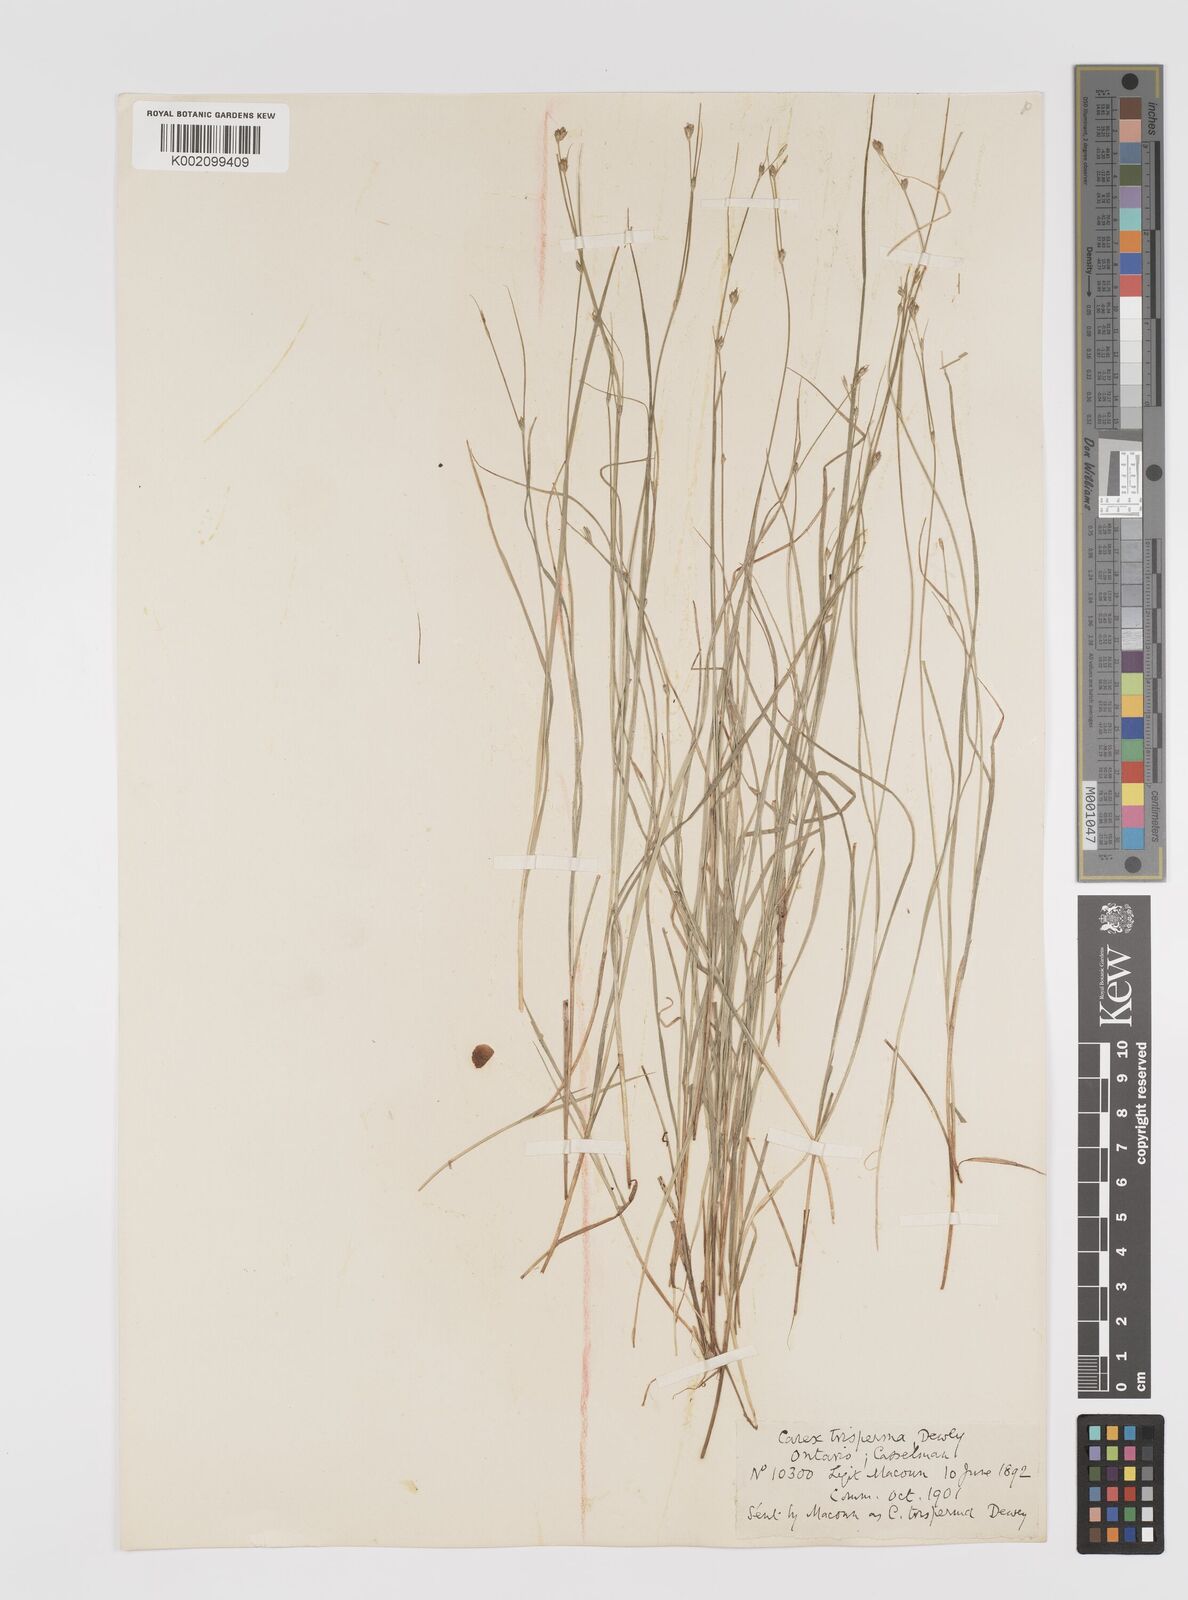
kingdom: Plantae
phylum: Tracheophyta
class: Liliopsida
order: Poales
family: Cyperaceae
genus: Carex
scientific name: Carex trisperma
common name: Three-seeded sedge
